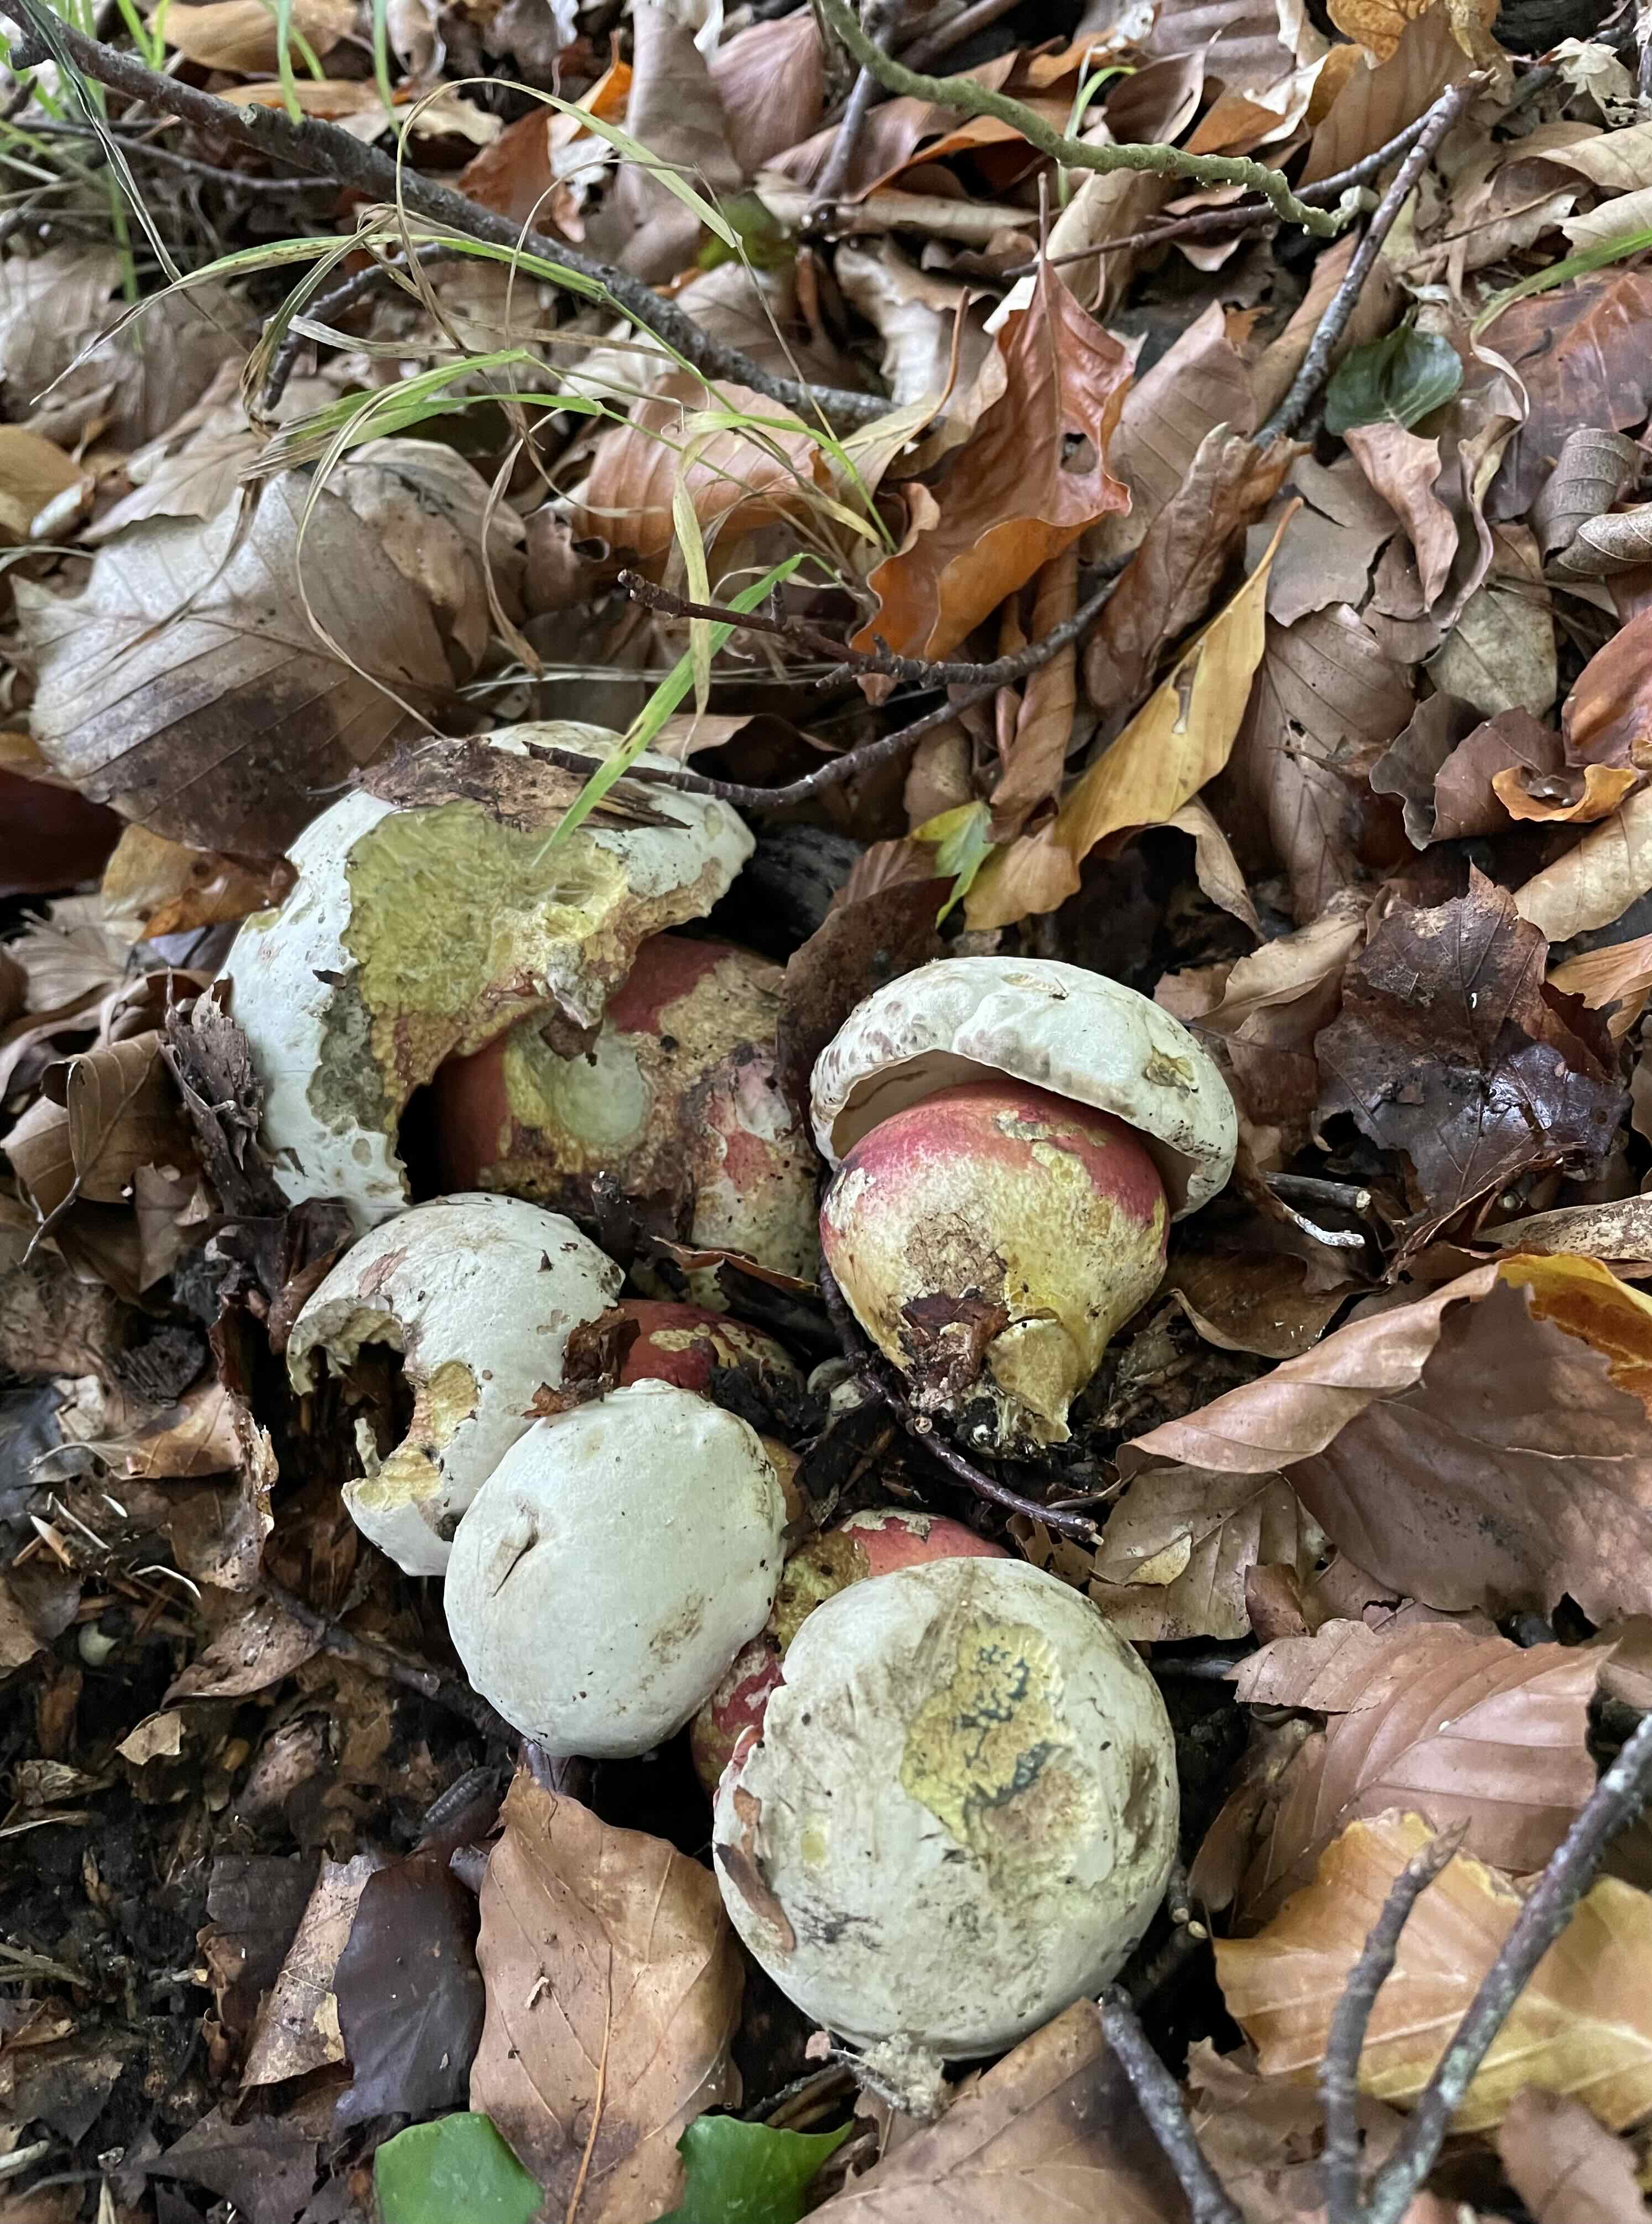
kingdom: Fungi
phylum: Basidiomycota
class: Agaricomycetes
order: Boletales
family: Boletaceae
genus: Rubroboletus
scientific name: Rubroboletus satanas
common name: Satans rørhat
